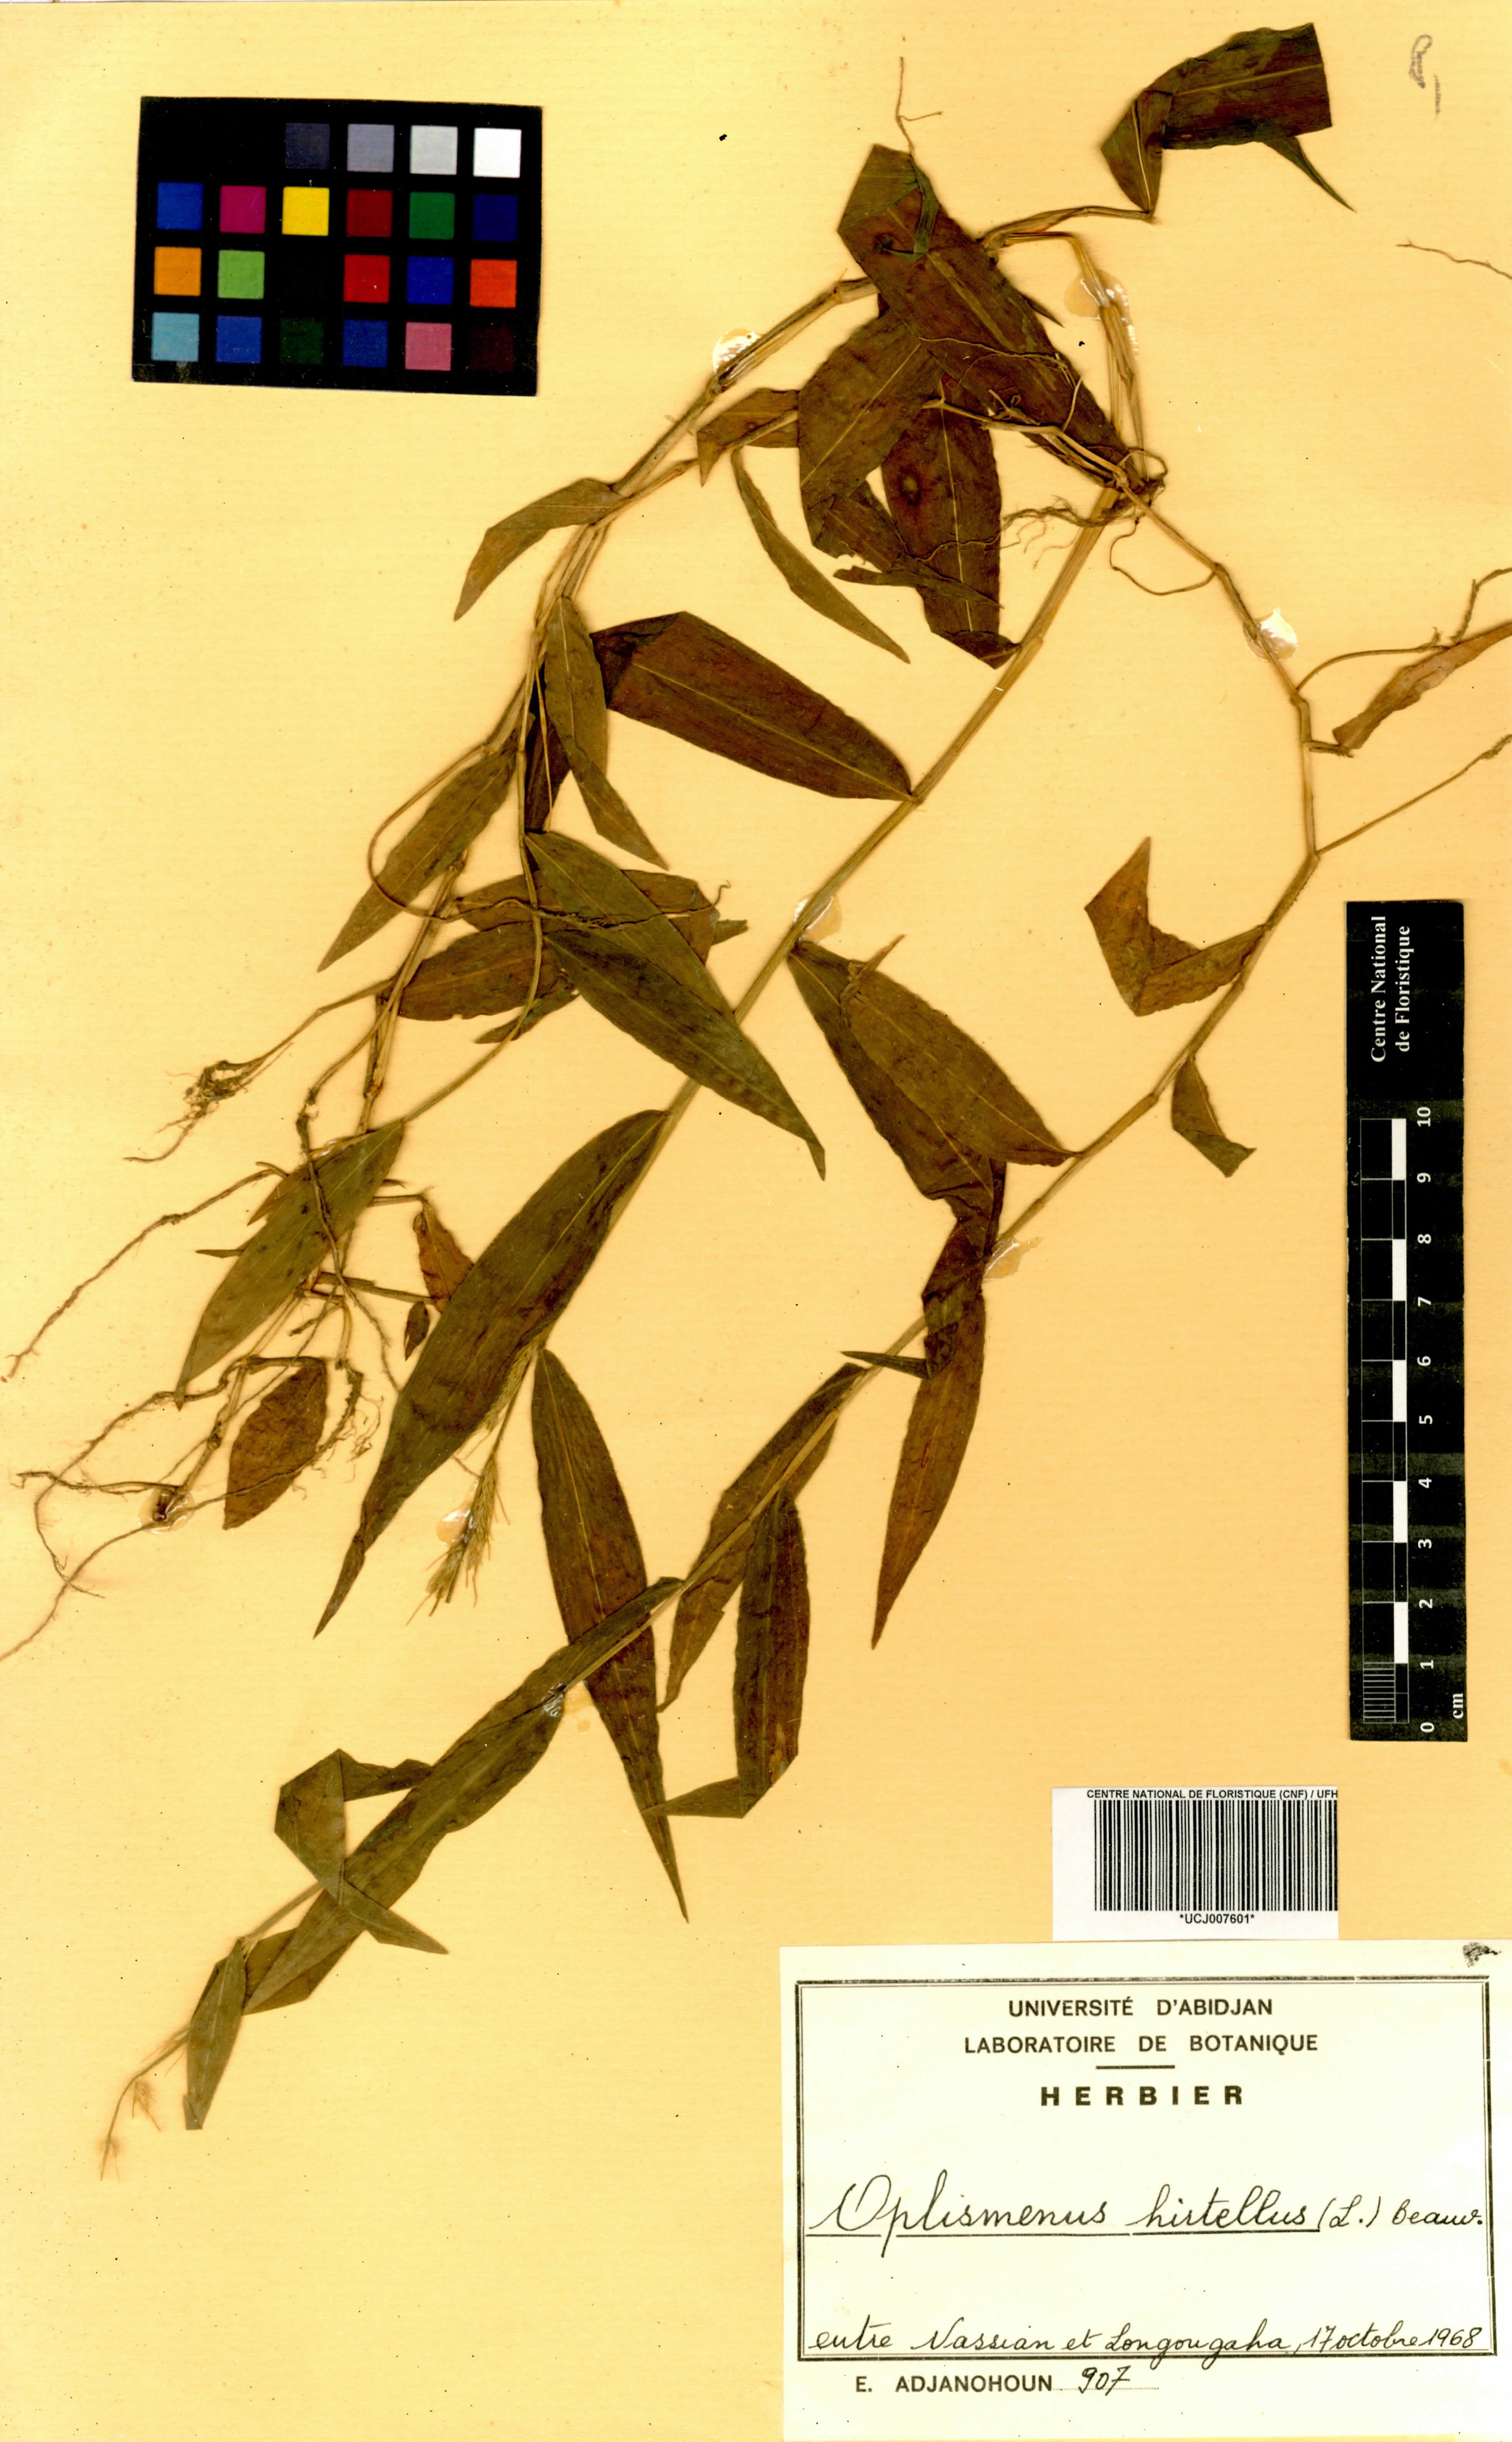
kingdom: Plantae
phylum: Tracheophyta
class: Liliopsida
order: Poales
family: Poaceae
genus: Oplismenus
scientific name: Oplismenus hirtellus
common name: Basketgrass
